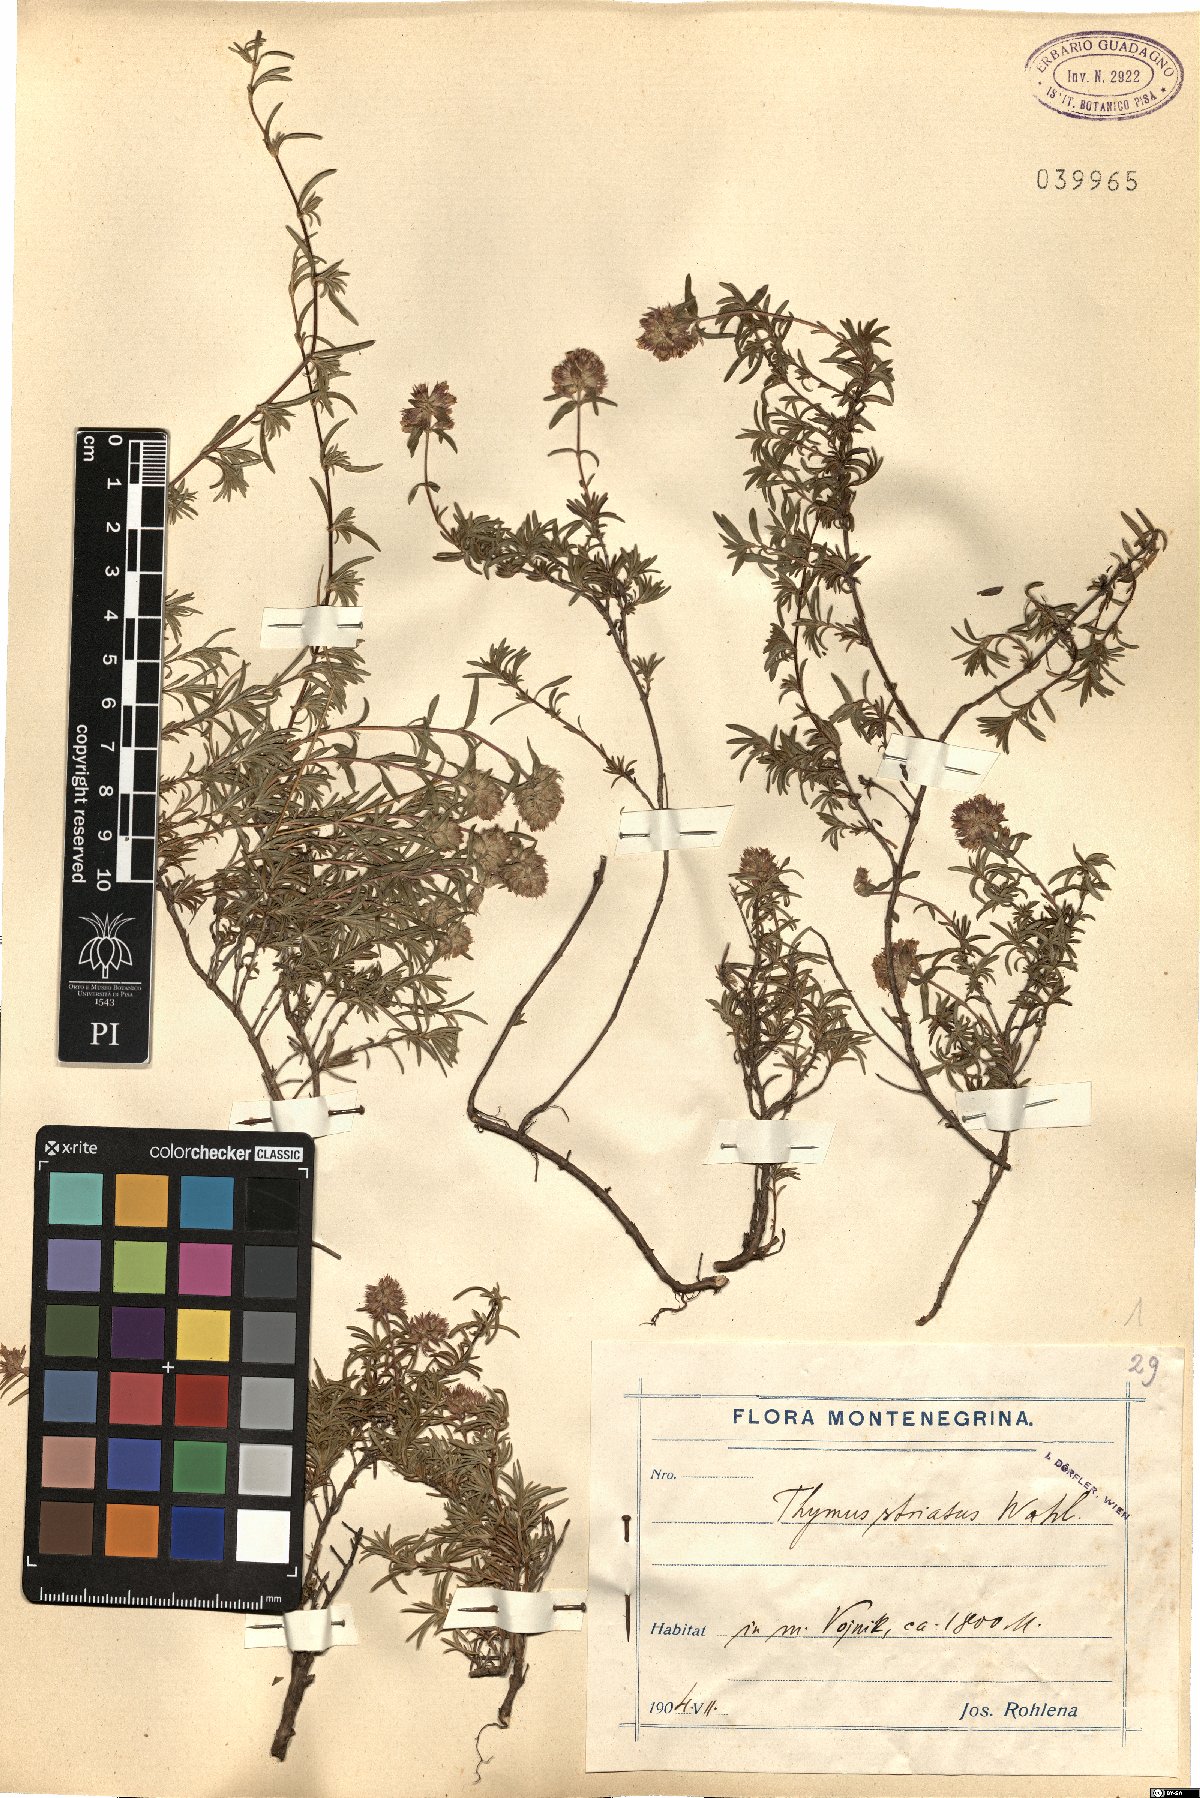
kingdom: Plantae
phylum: Tracheophyta
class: Magnoliopsida
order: Lamiales
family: Lamiaceae
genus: Thymus
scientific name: Thymus striatus
